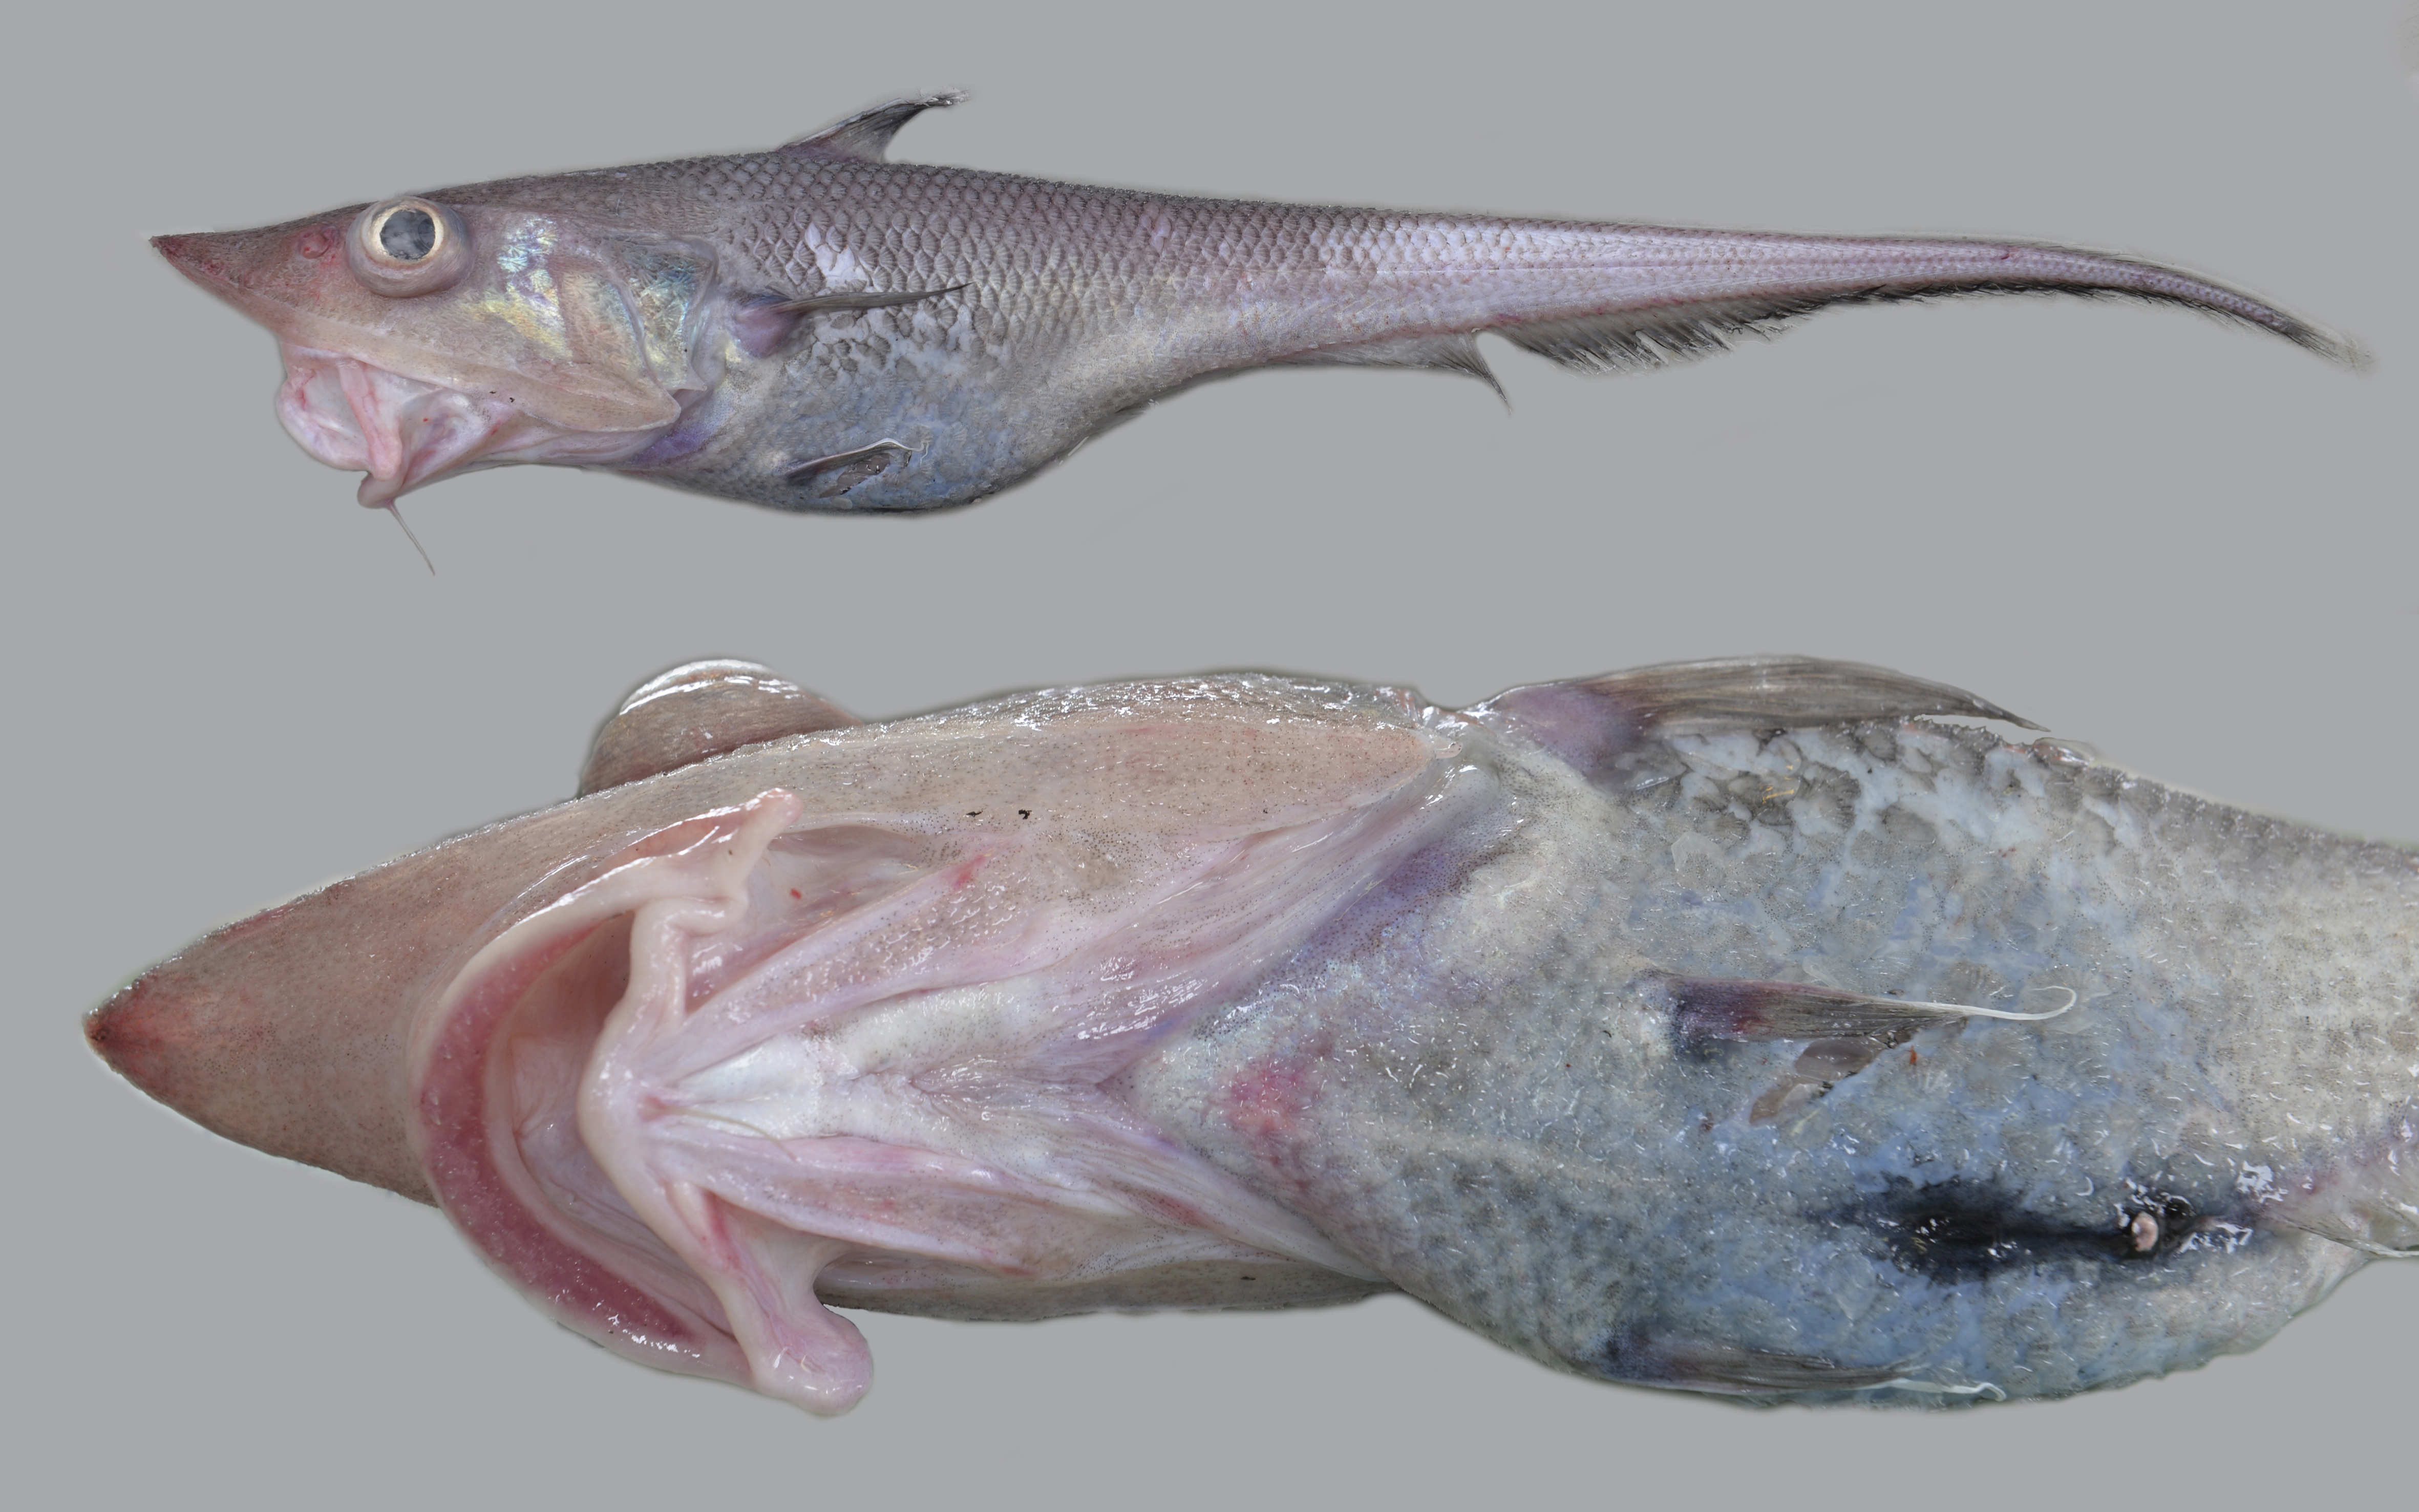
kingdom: Animalia
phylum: Chordata
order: Gadiformes
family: Macrouridae
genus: Kuronezumia
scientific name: Kuronezumia leonis
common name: Snubnose whiptail
